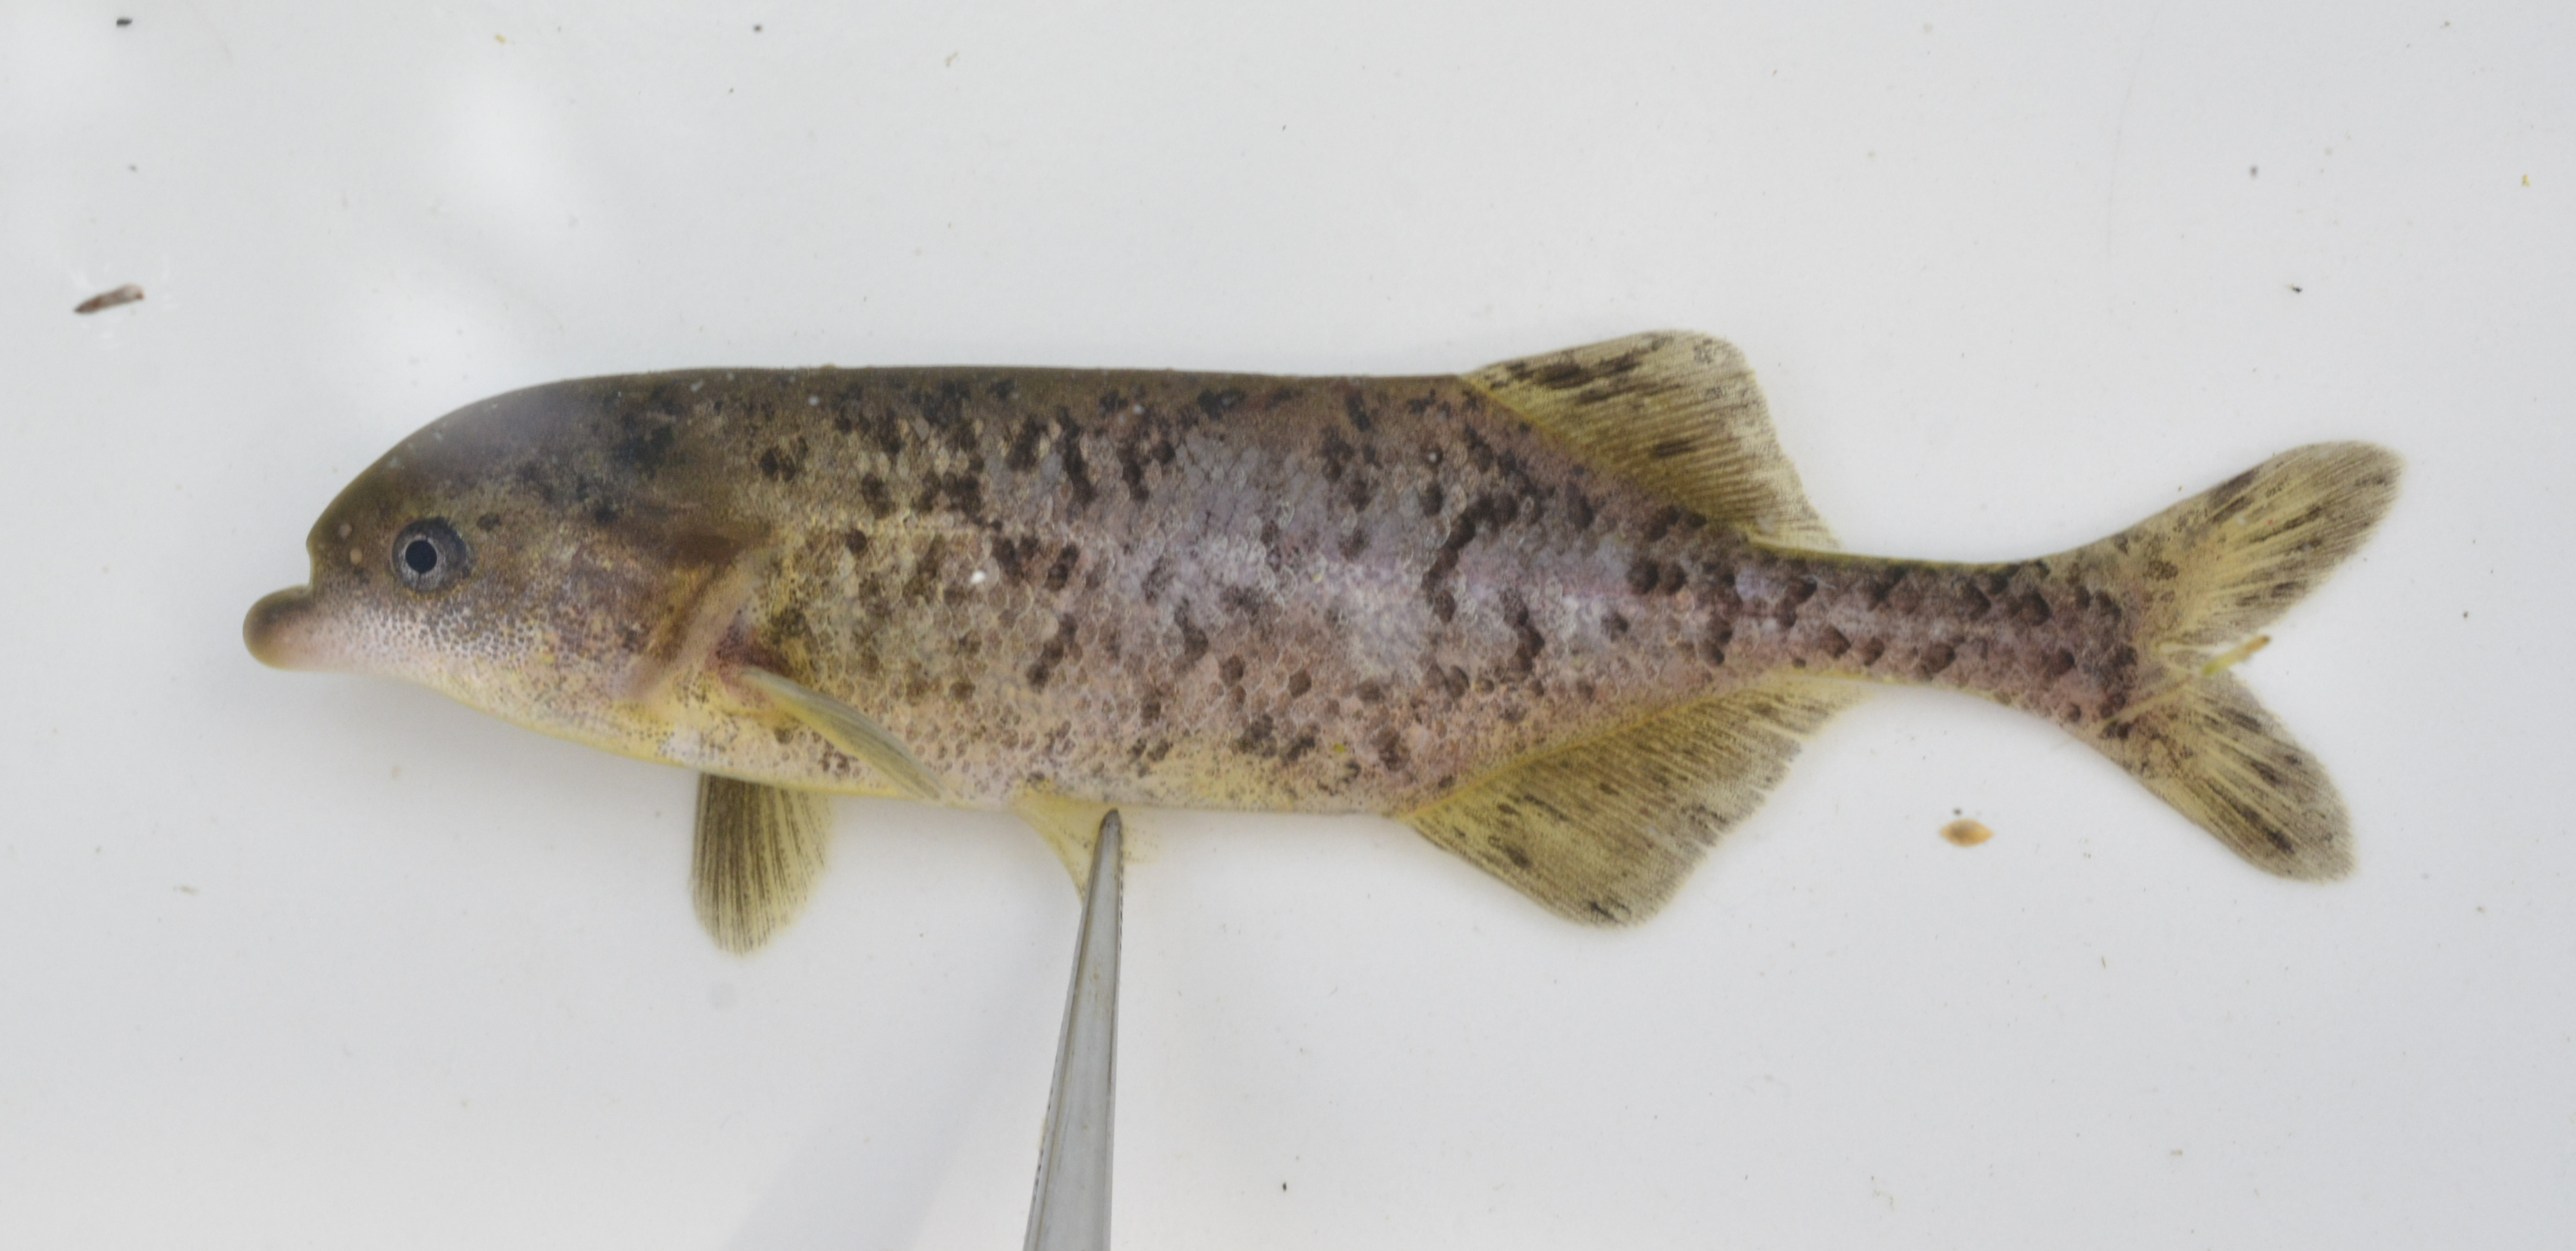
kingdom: Animalia
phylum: Chordata
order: Osteoglossiformes
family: Mormyridae
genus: Marcusenius
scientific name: Marcusenius altisambesi
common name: Bulldog
